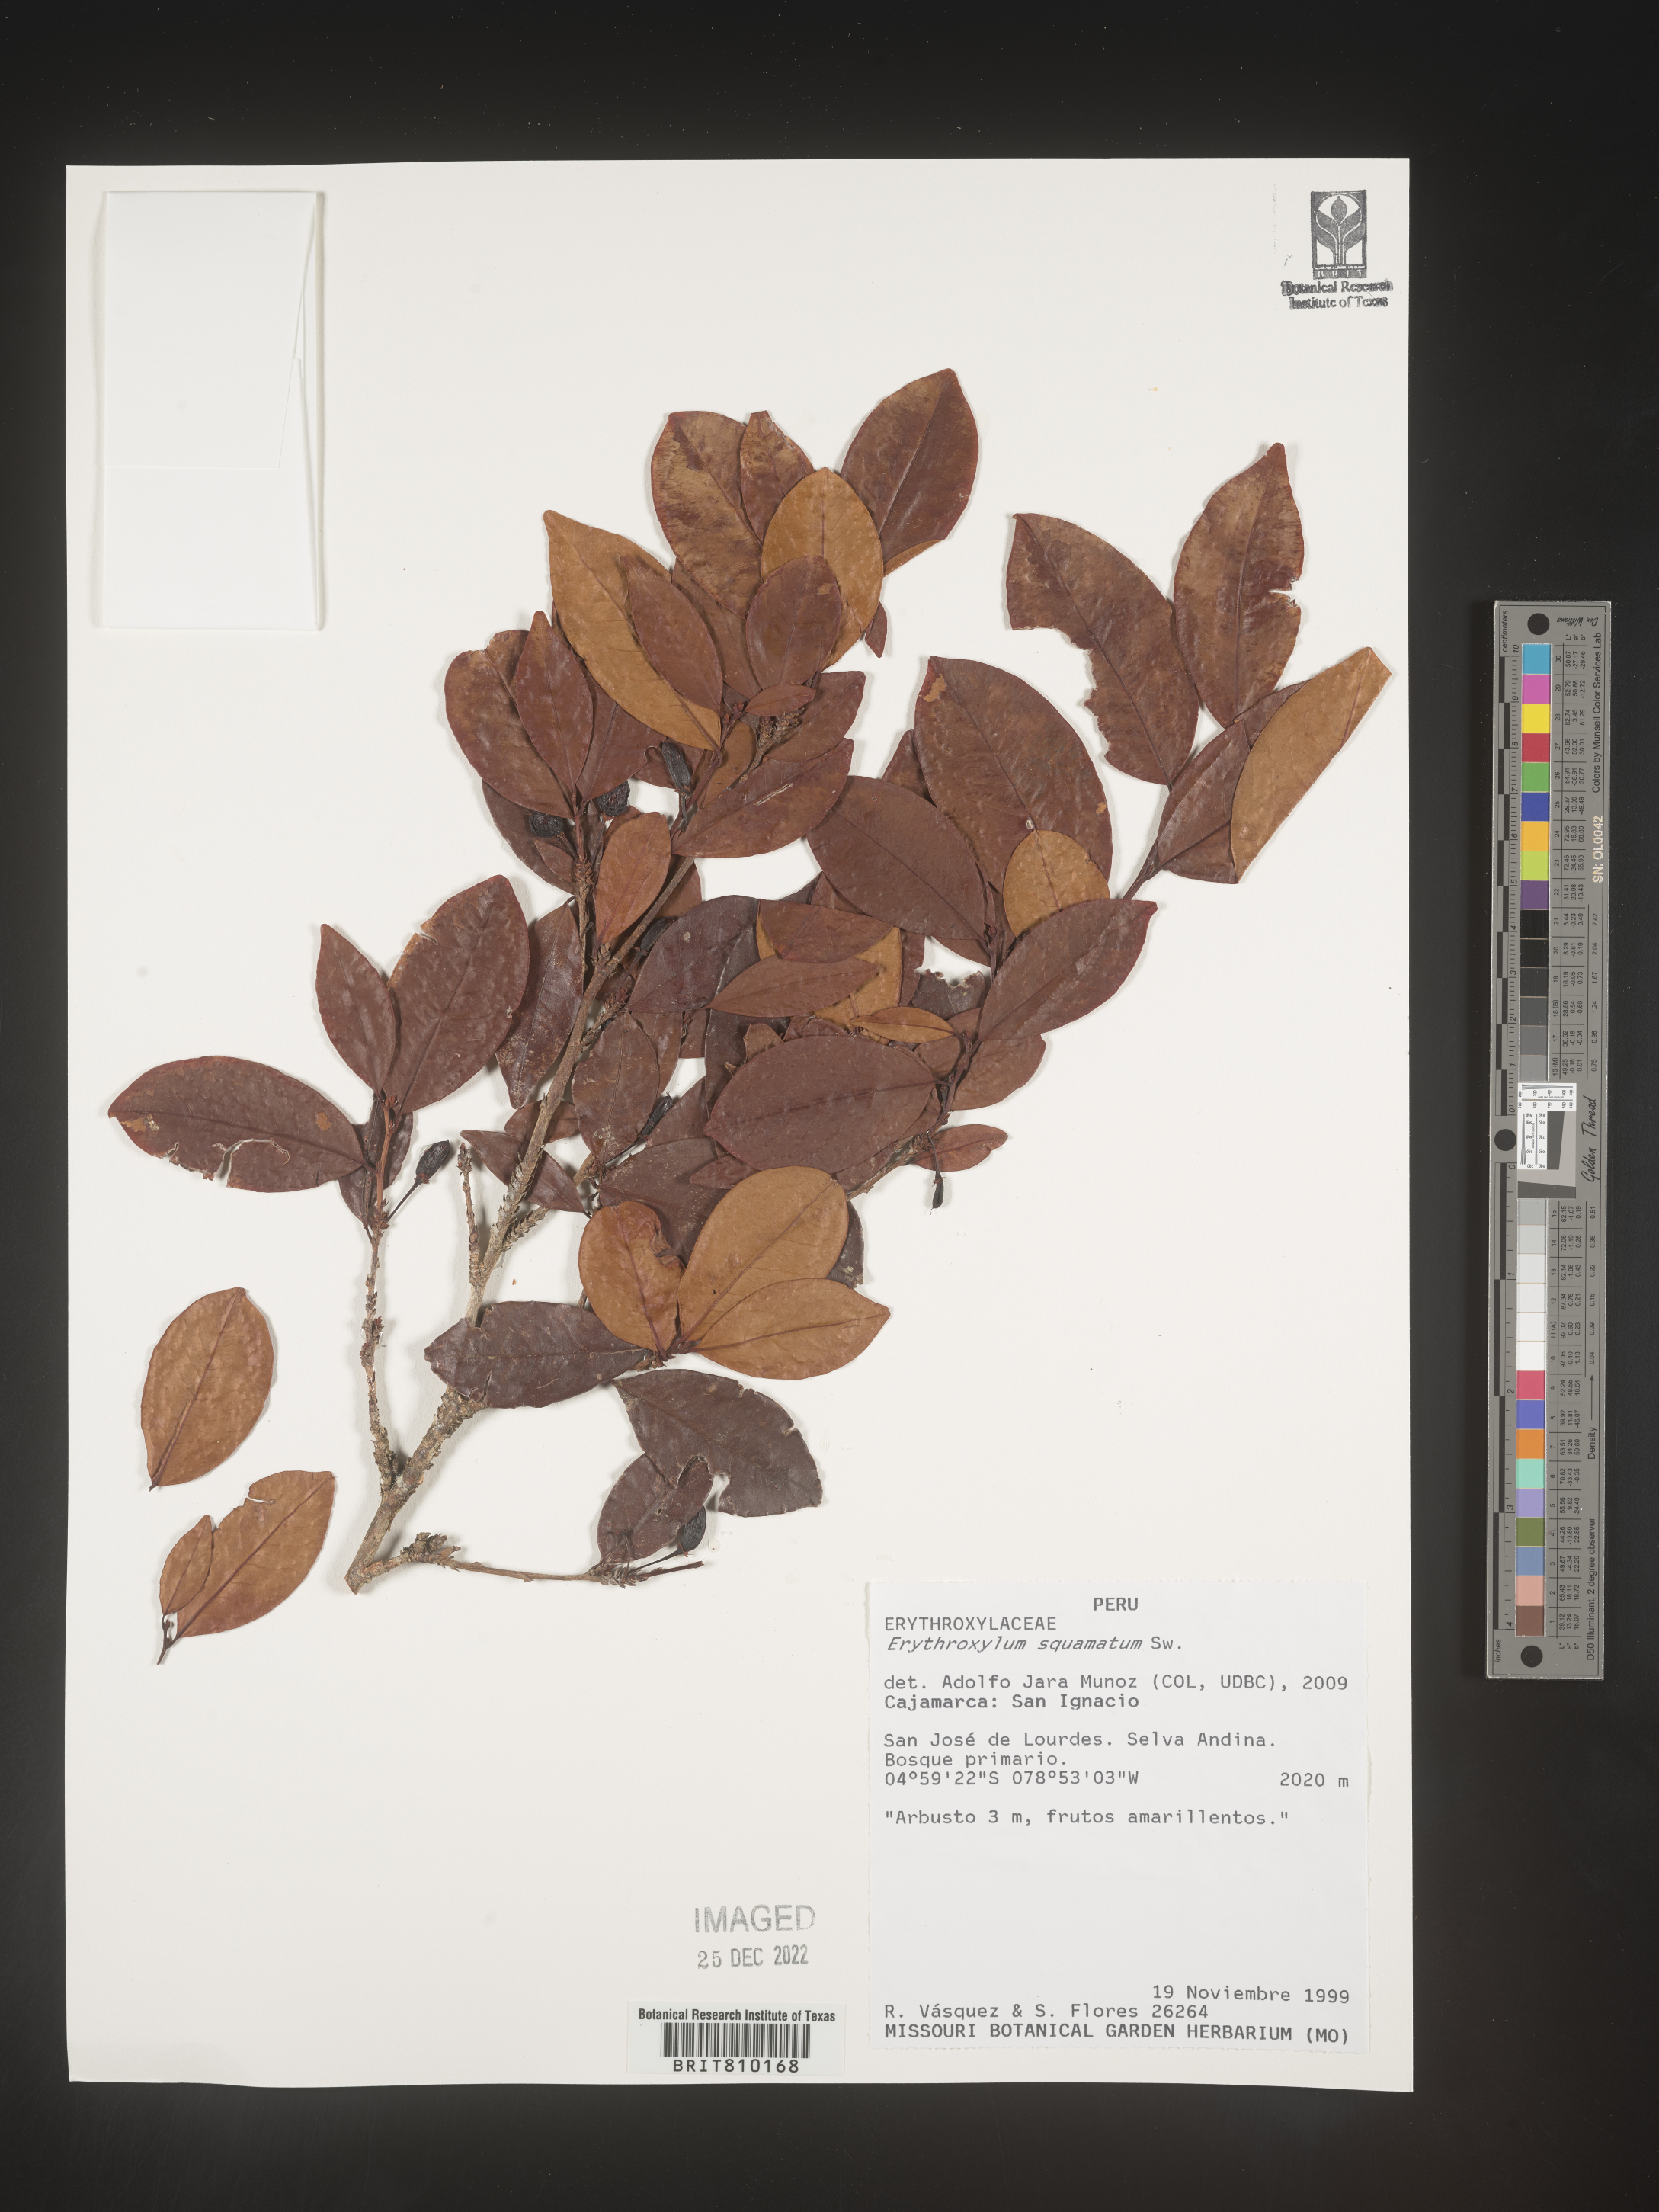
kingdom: Plantae
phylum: Tracheophyta
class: Magnoliopsida
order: Malpighiales
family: Erythroxylaceae
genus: Erythroxylum
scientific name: Erythroxylum
